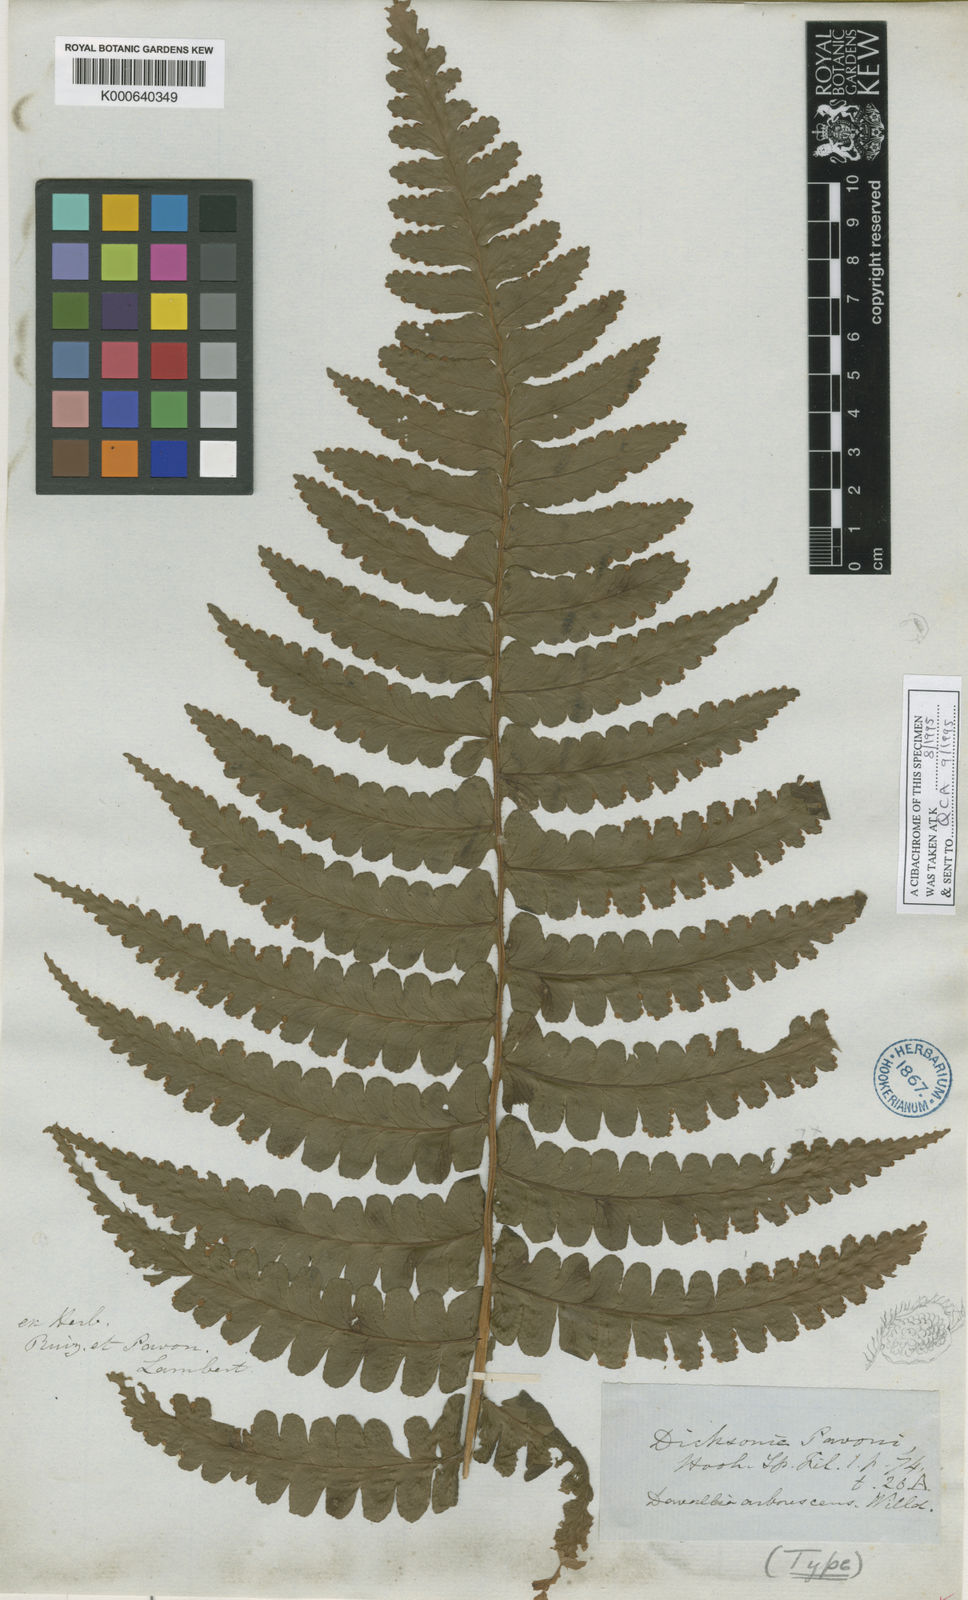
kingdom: Plantae
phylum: Tracheophyta
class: Polypodiopsida
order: Polypodiales
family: Dennstaedtiaceae
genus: Dennstaedtia
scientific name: Dennstaedtia sprucei
